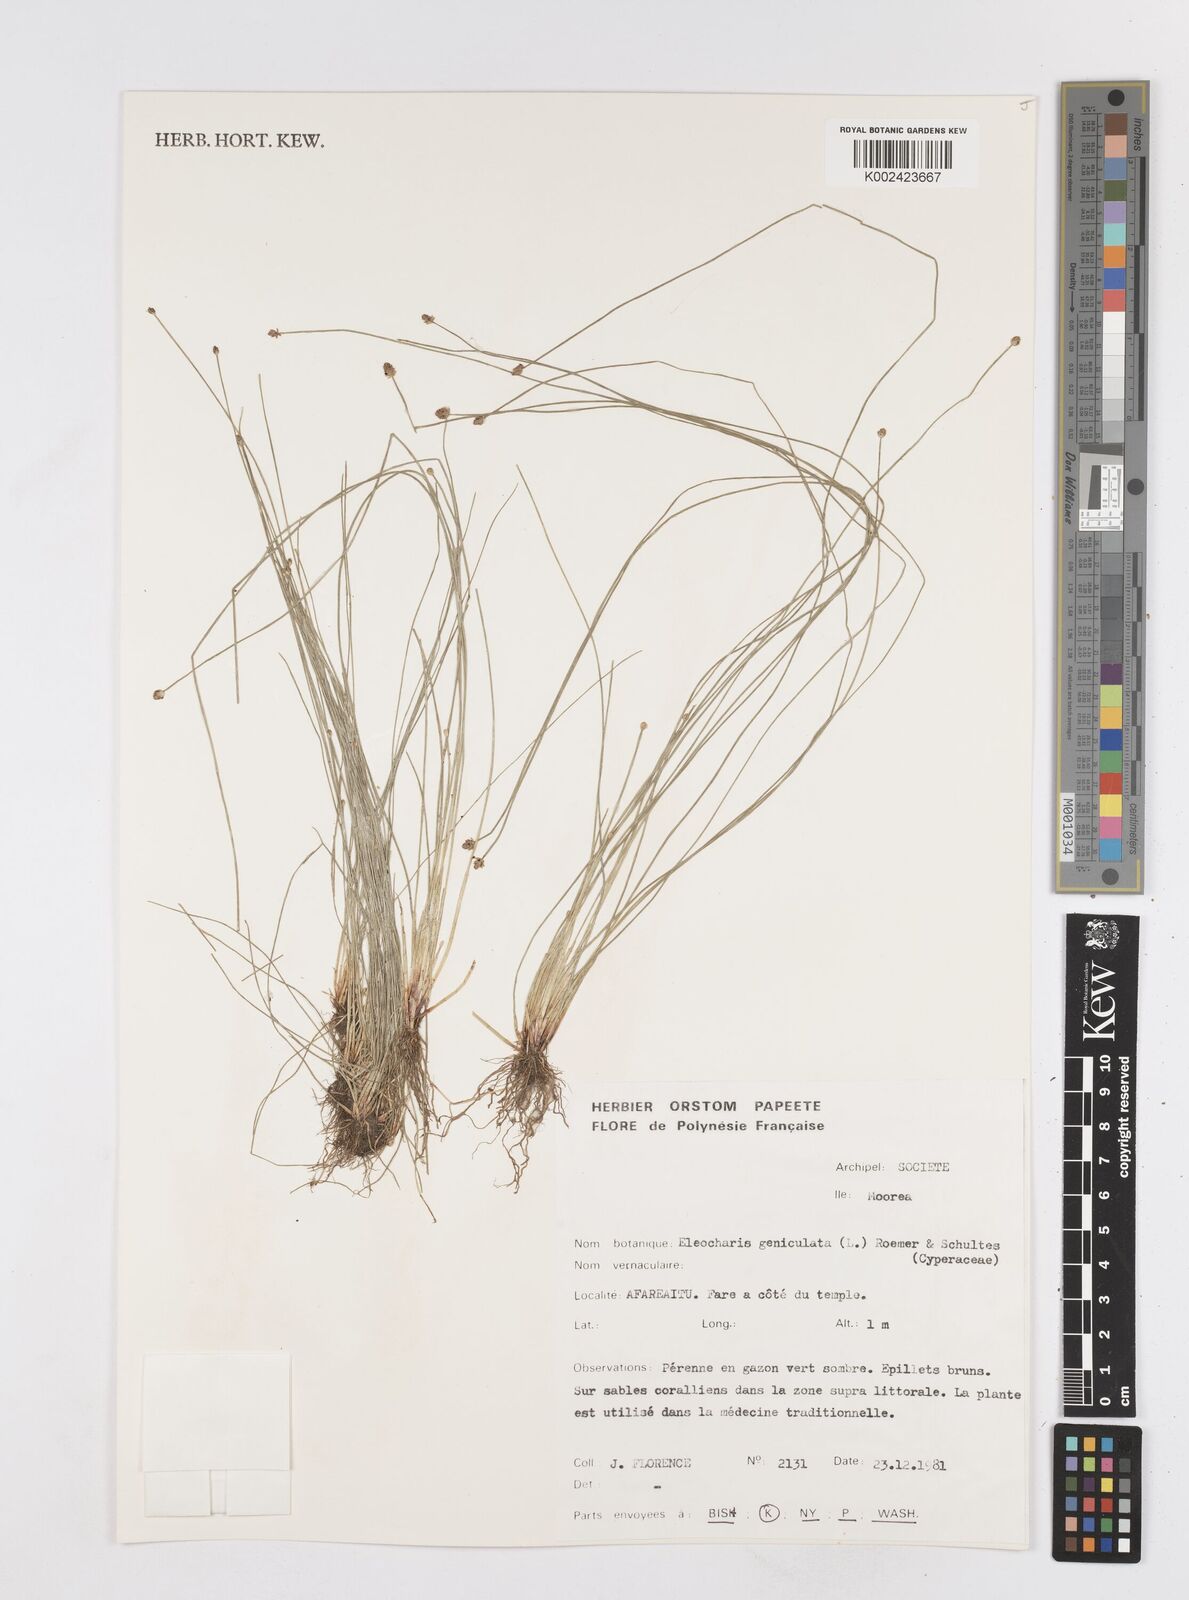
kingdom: Plantae
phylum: Tracheophyta
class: Liliopsida
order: Poales
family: Cyperaceae
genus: Eleocharis
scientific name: Eleocharis
